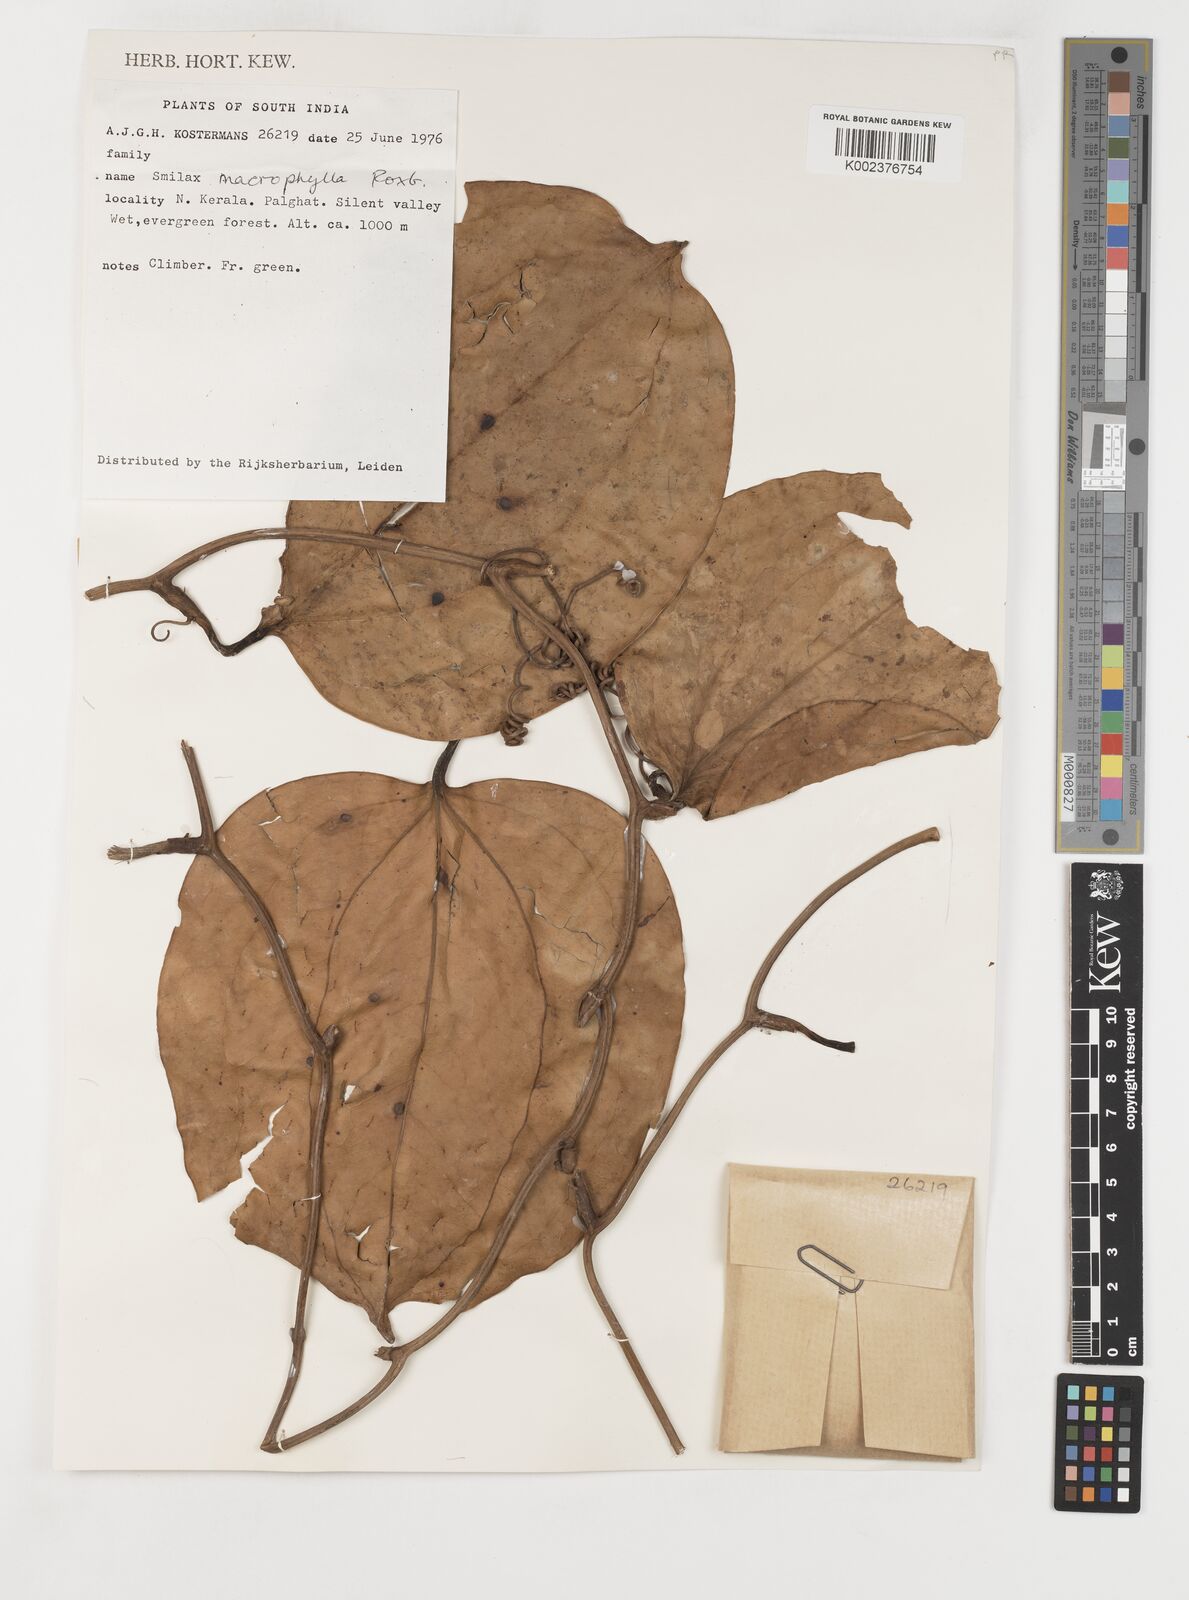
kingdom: Plantae
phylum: Tracheophyta
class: Liliopsida
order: Liliales
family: Smilacaceae
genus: Smilax
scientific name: Smilax ovalifolia
